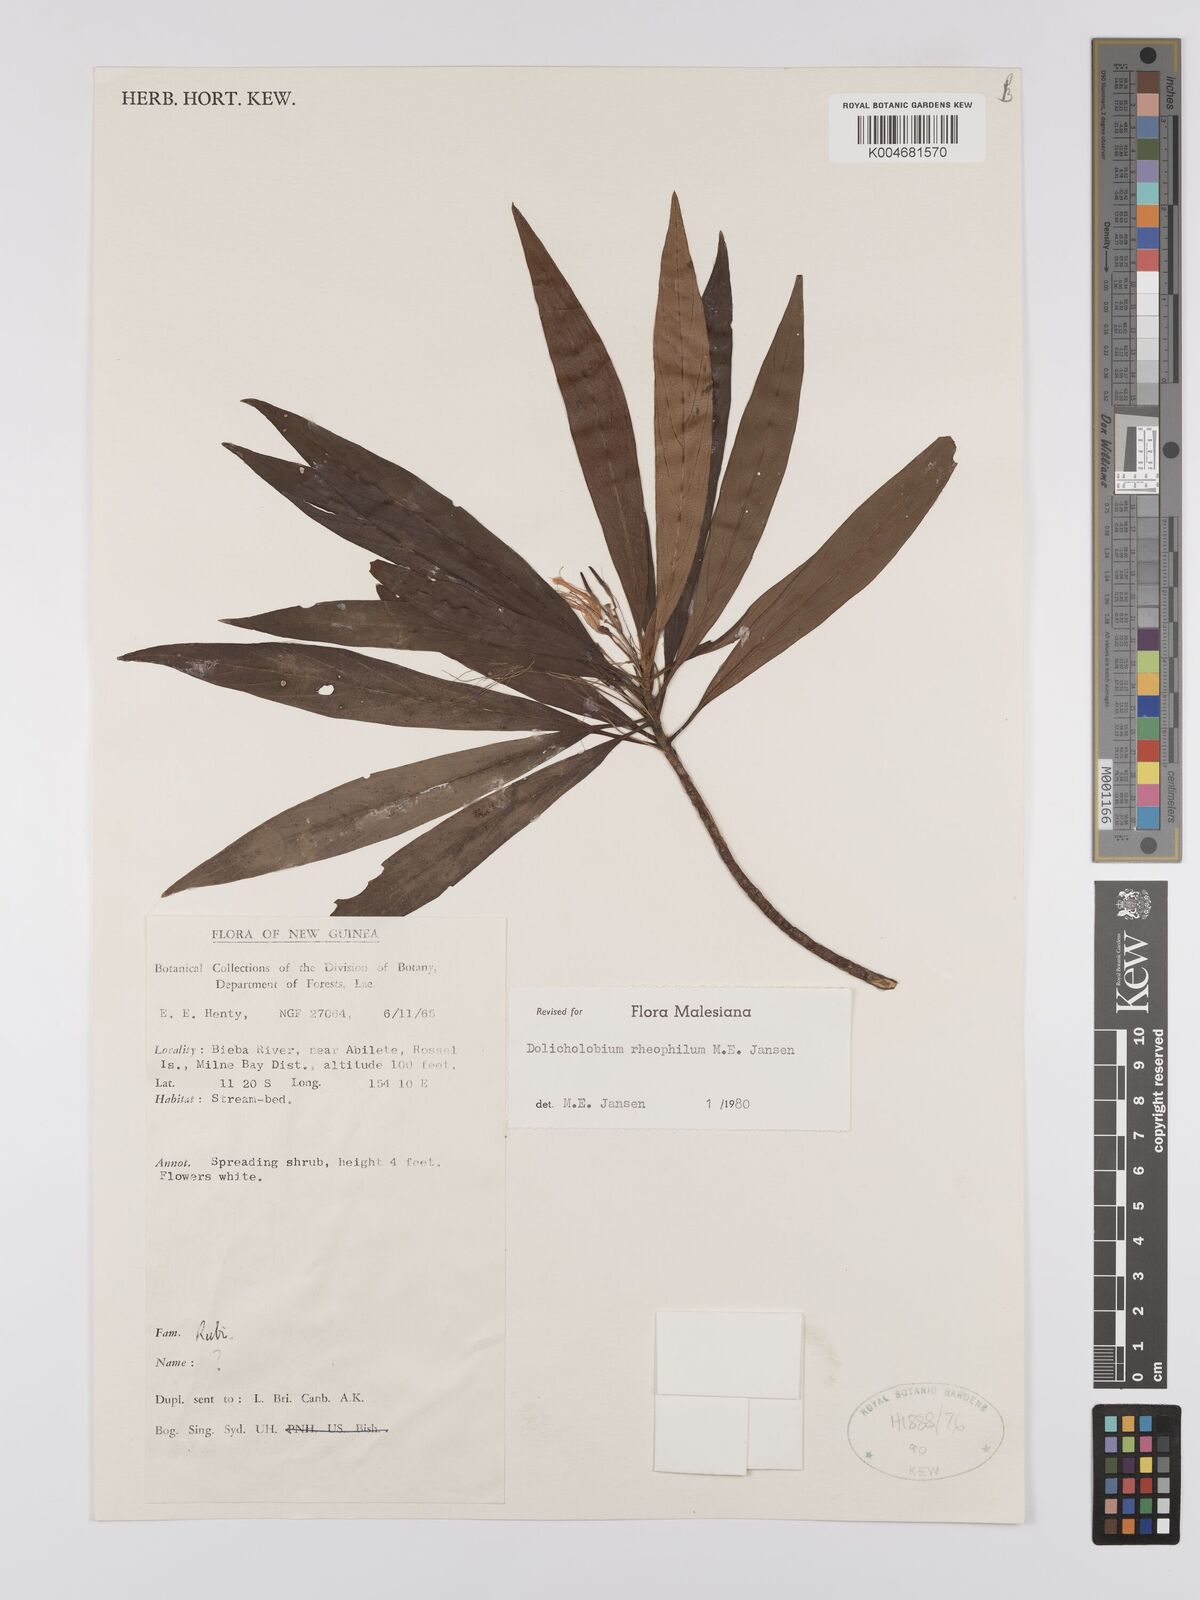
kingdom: Plantae
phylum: Tracheophyta
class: Magnoliopsida
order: Gentianales
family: Rubiaceae
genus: Dolicholobium
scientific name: Dolicholobium rheophilum
